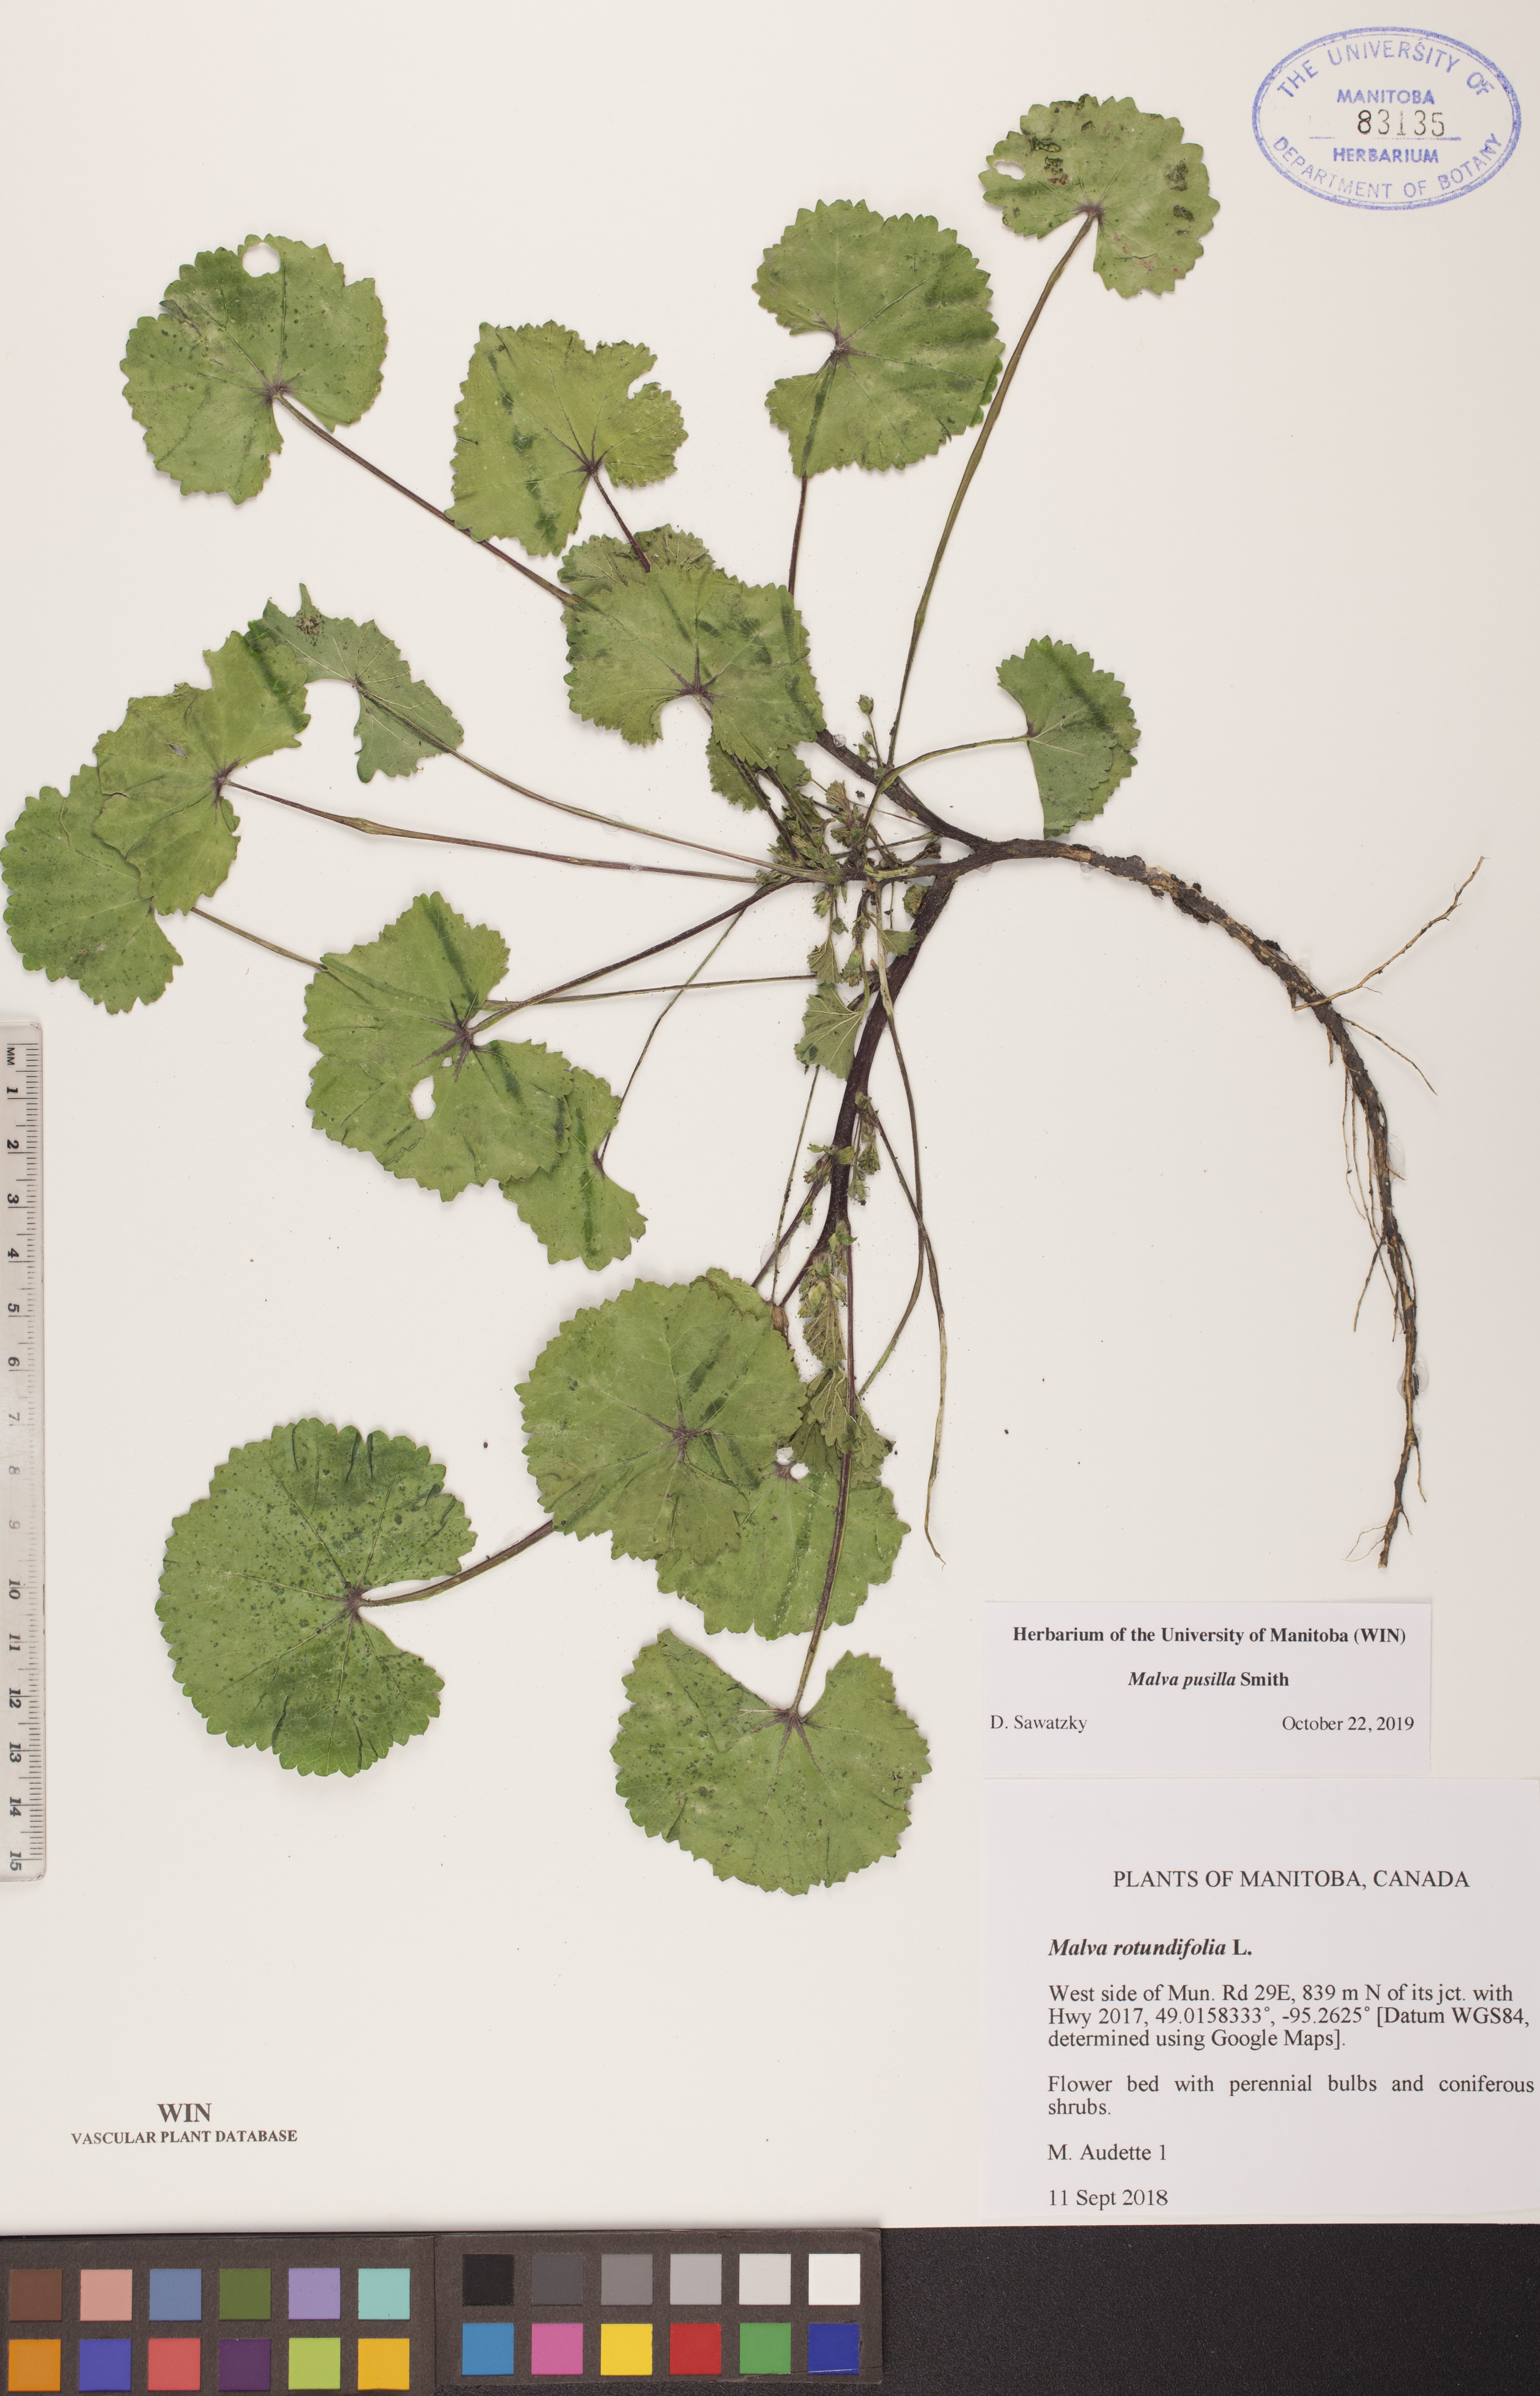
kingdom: Plantae
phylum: Tracheophyta
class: Magnoliopsida
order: Malvales
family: Malvaceae
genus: Malva
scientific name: Malva pusilla
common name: Small mallow
